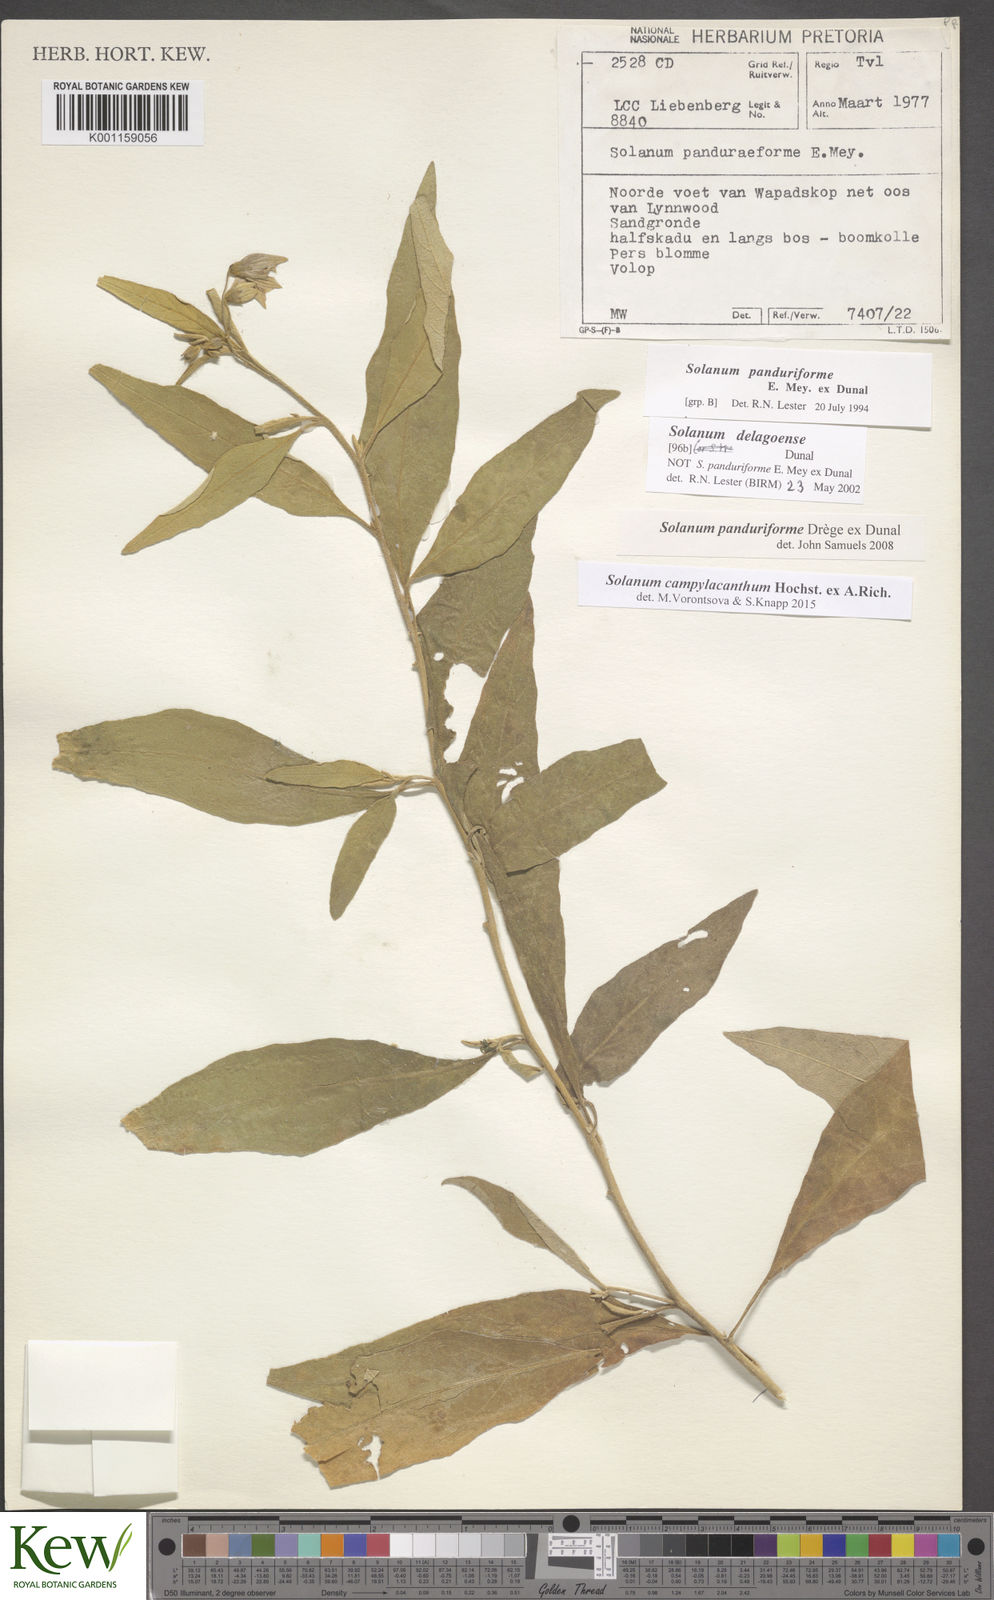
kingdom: Plantae
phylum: Tracheophyta
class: Magnoliopsida
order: Solanales
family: Solanaceae
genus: Solanum
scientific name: Solanum campylacanthum
